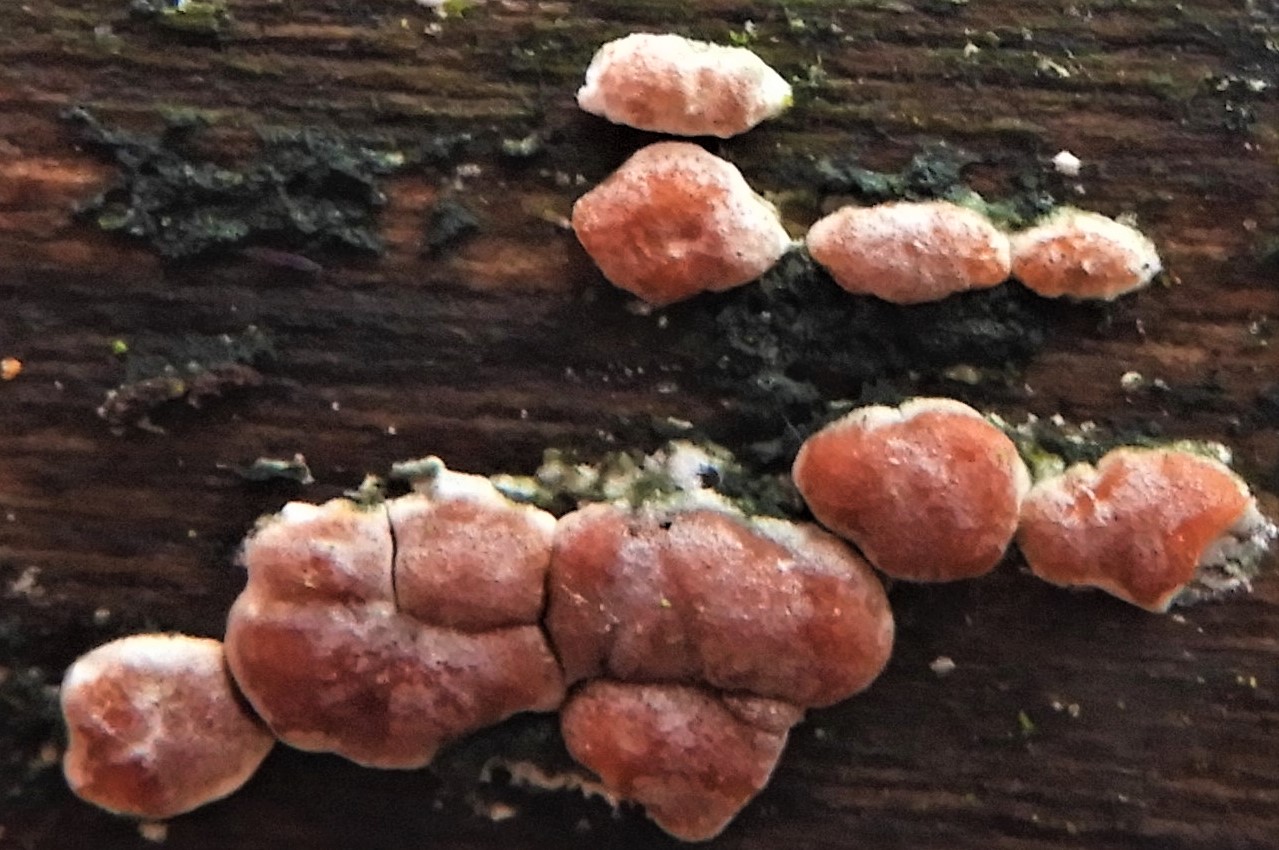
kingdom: Fungi
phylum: Ascomycota
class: Sordariomycetes
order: Hypocreales
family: Hypocreaceae
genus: Trichoderma
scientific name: Trichoderma europaeum
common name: rosabrun kødkerne
